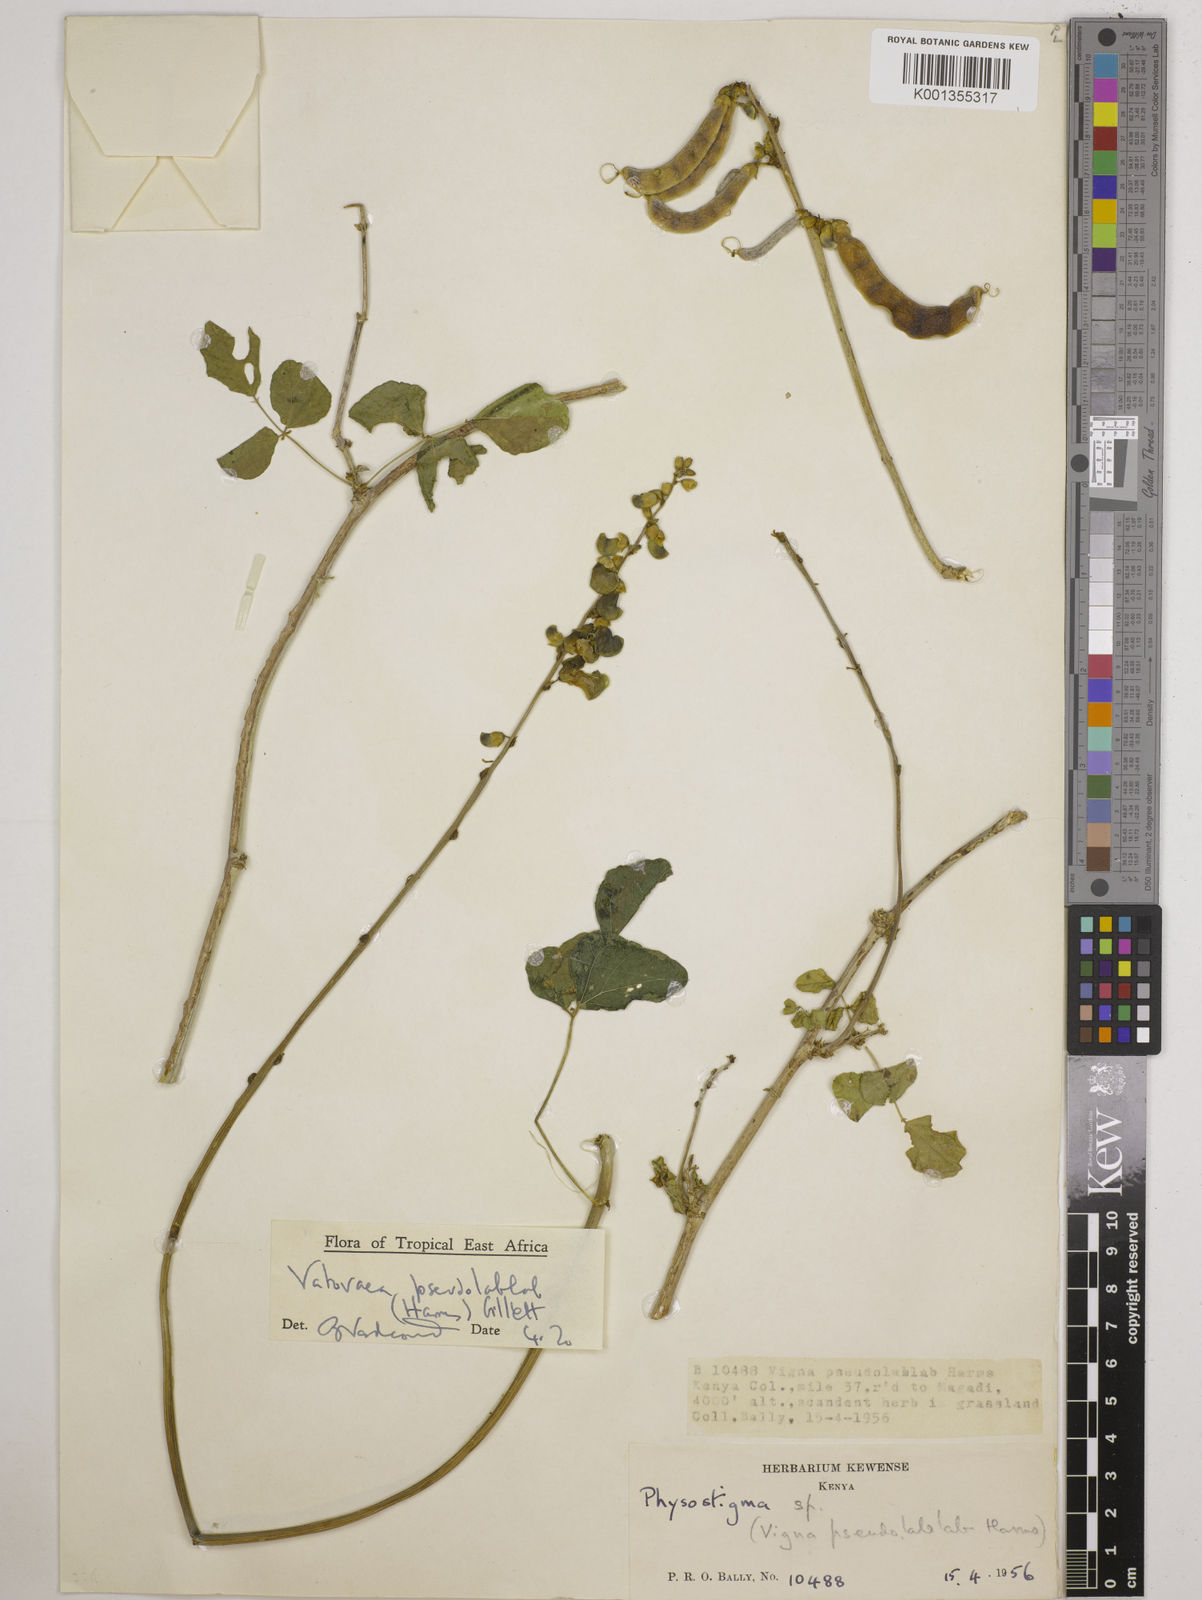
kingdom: Plantae
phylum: Tracheophyta
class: Magnoliopsida
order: Fabales
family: Fabaceae
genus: Vatovaea
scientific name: Vatovaea pseudolablab
